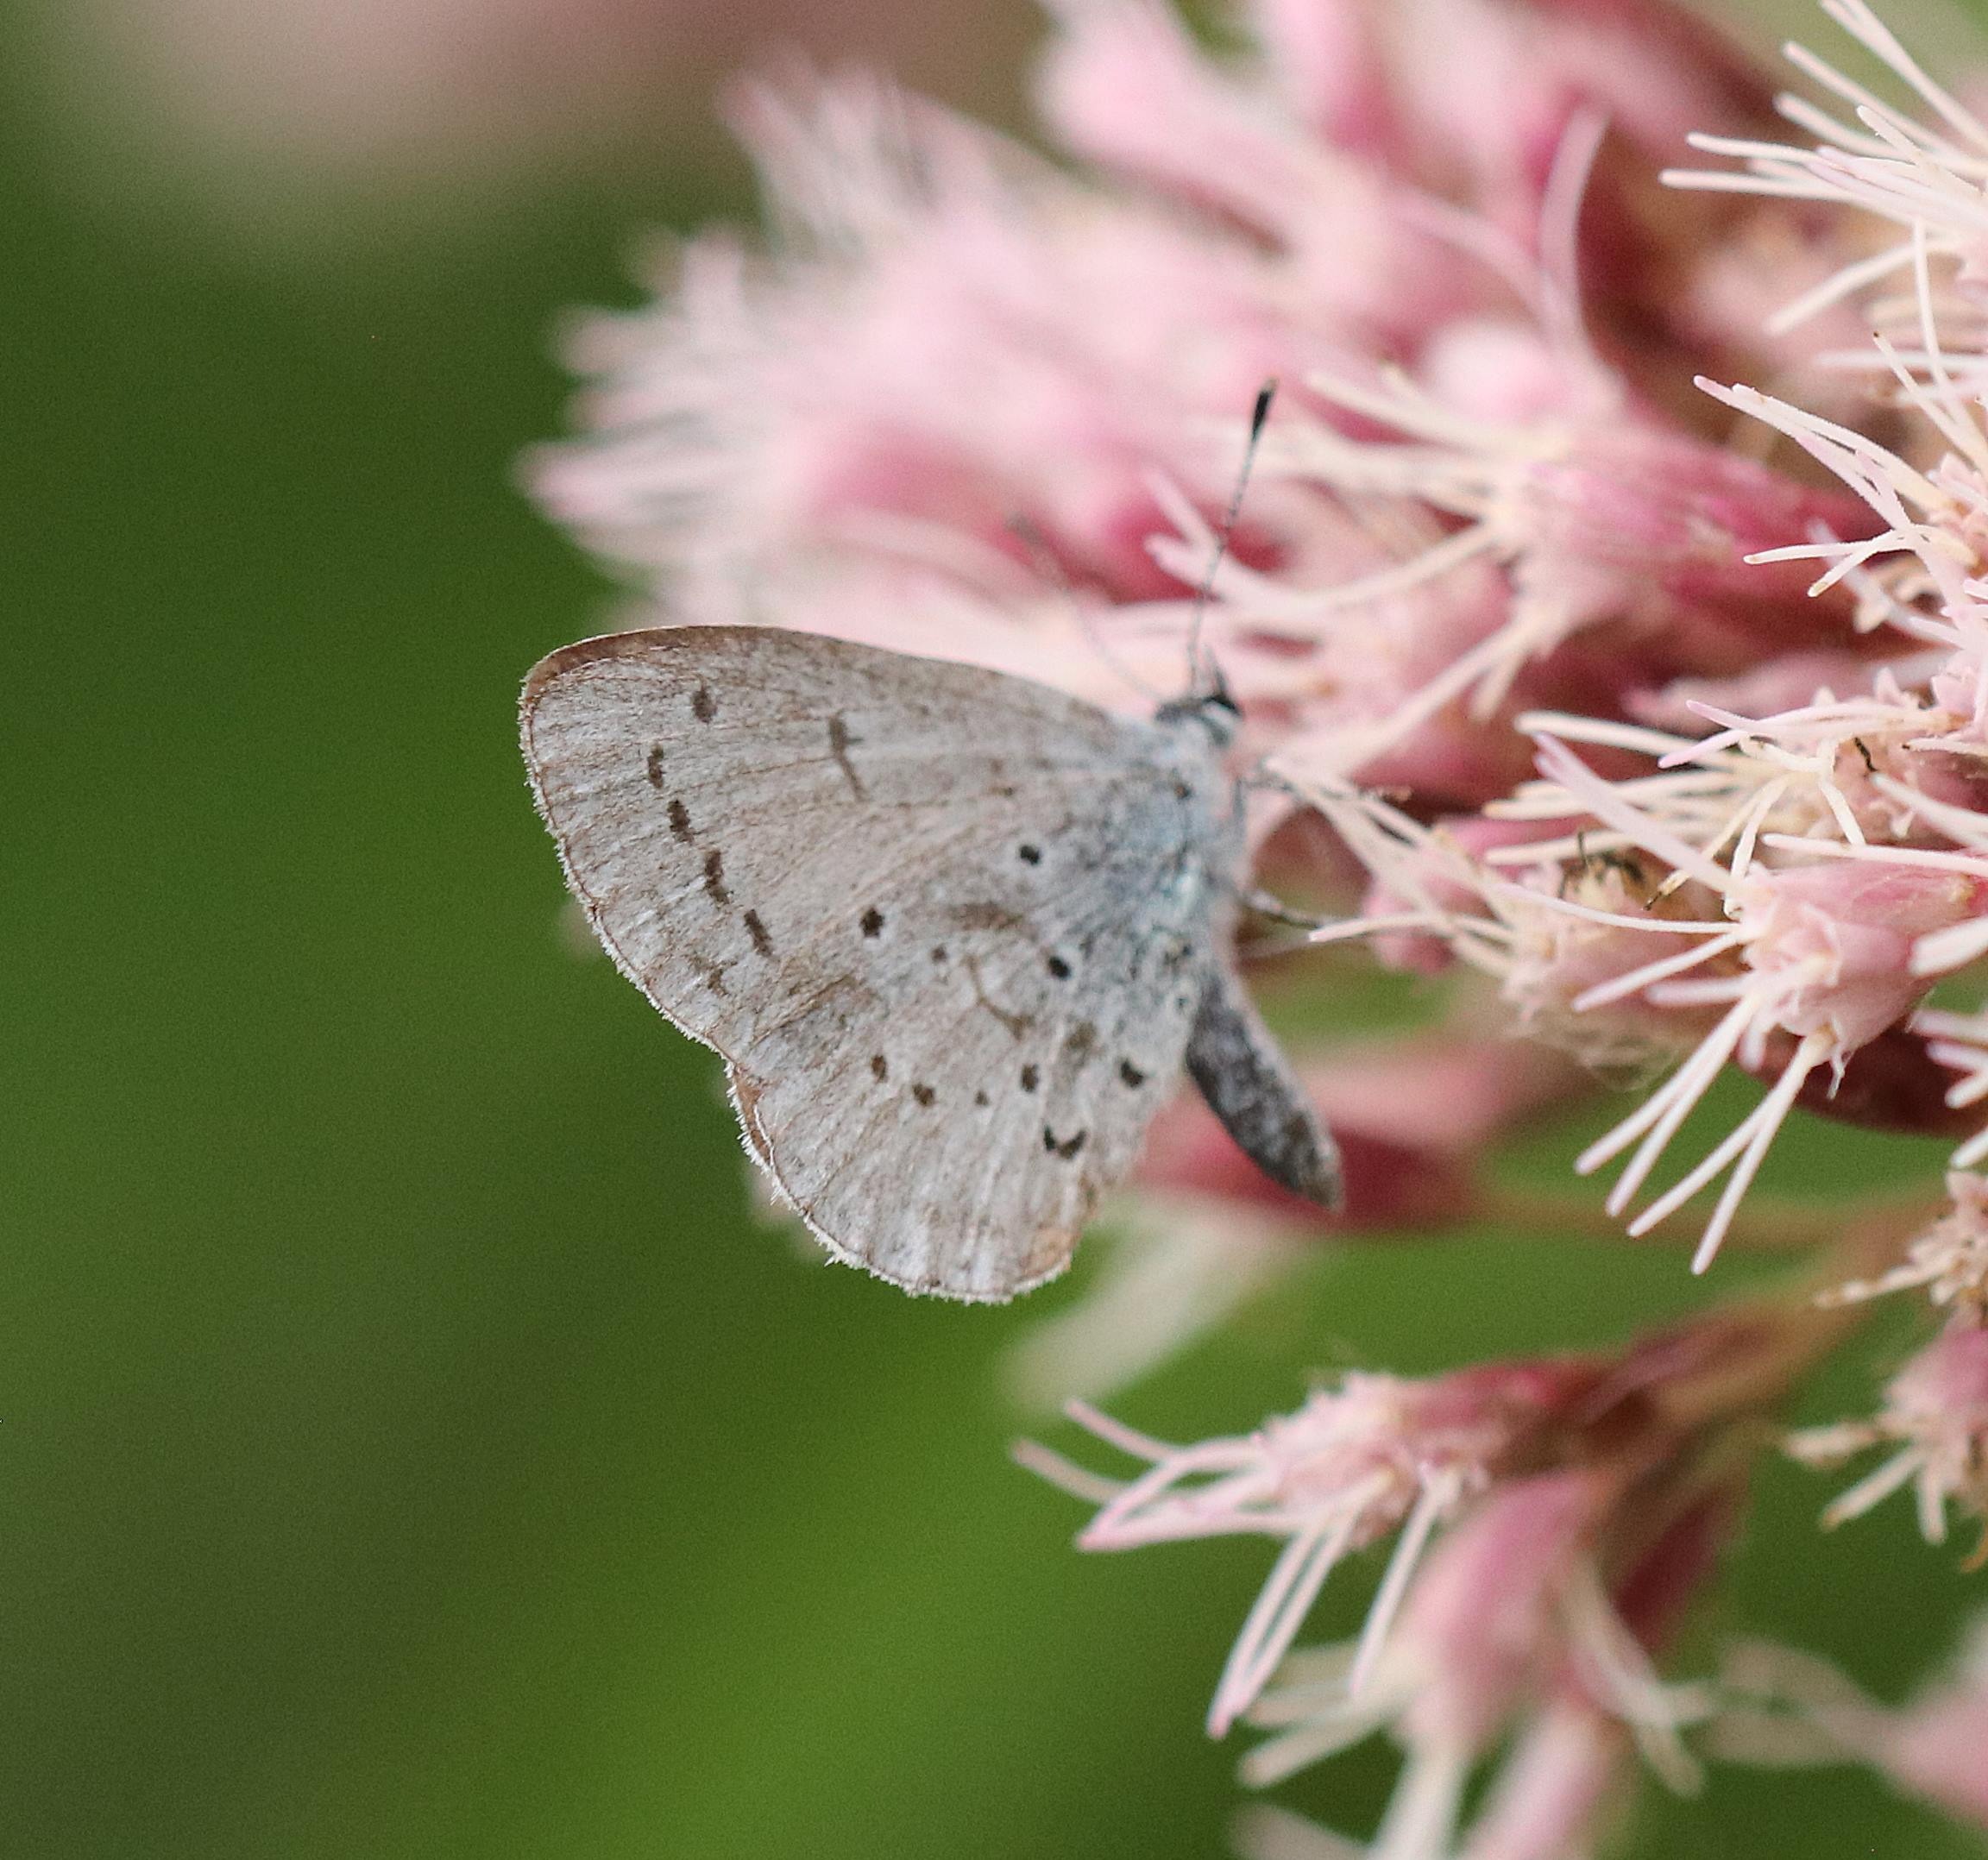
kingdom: Animalia
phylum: Arthropoda
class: Insecta
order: Lepidoptera
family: Lycaenidae
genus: Celastrina
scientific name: Celastrina argiolus
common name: Skovblåfugl
